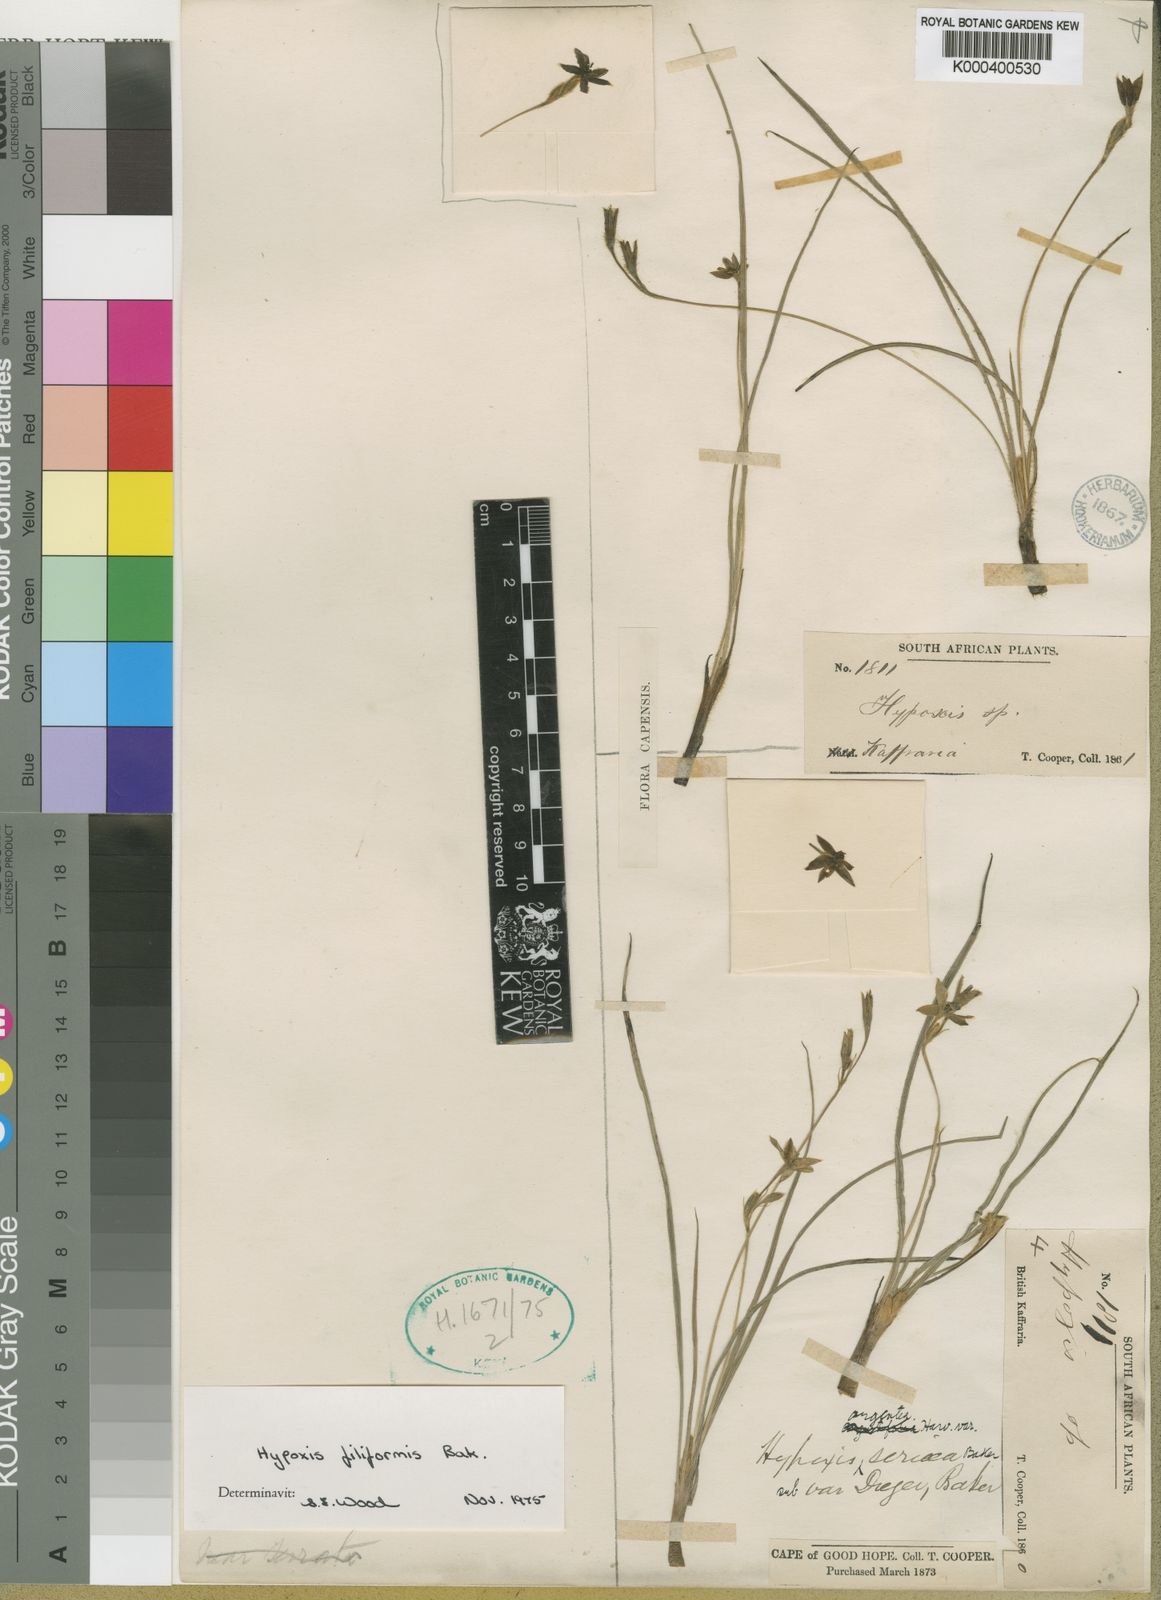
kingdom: Plantae
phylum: Tracheophyta
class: Liliopsida
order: Asparagales
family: Hypoxidaceae
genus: Hypoxis
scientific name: Hypoxis filiformis
